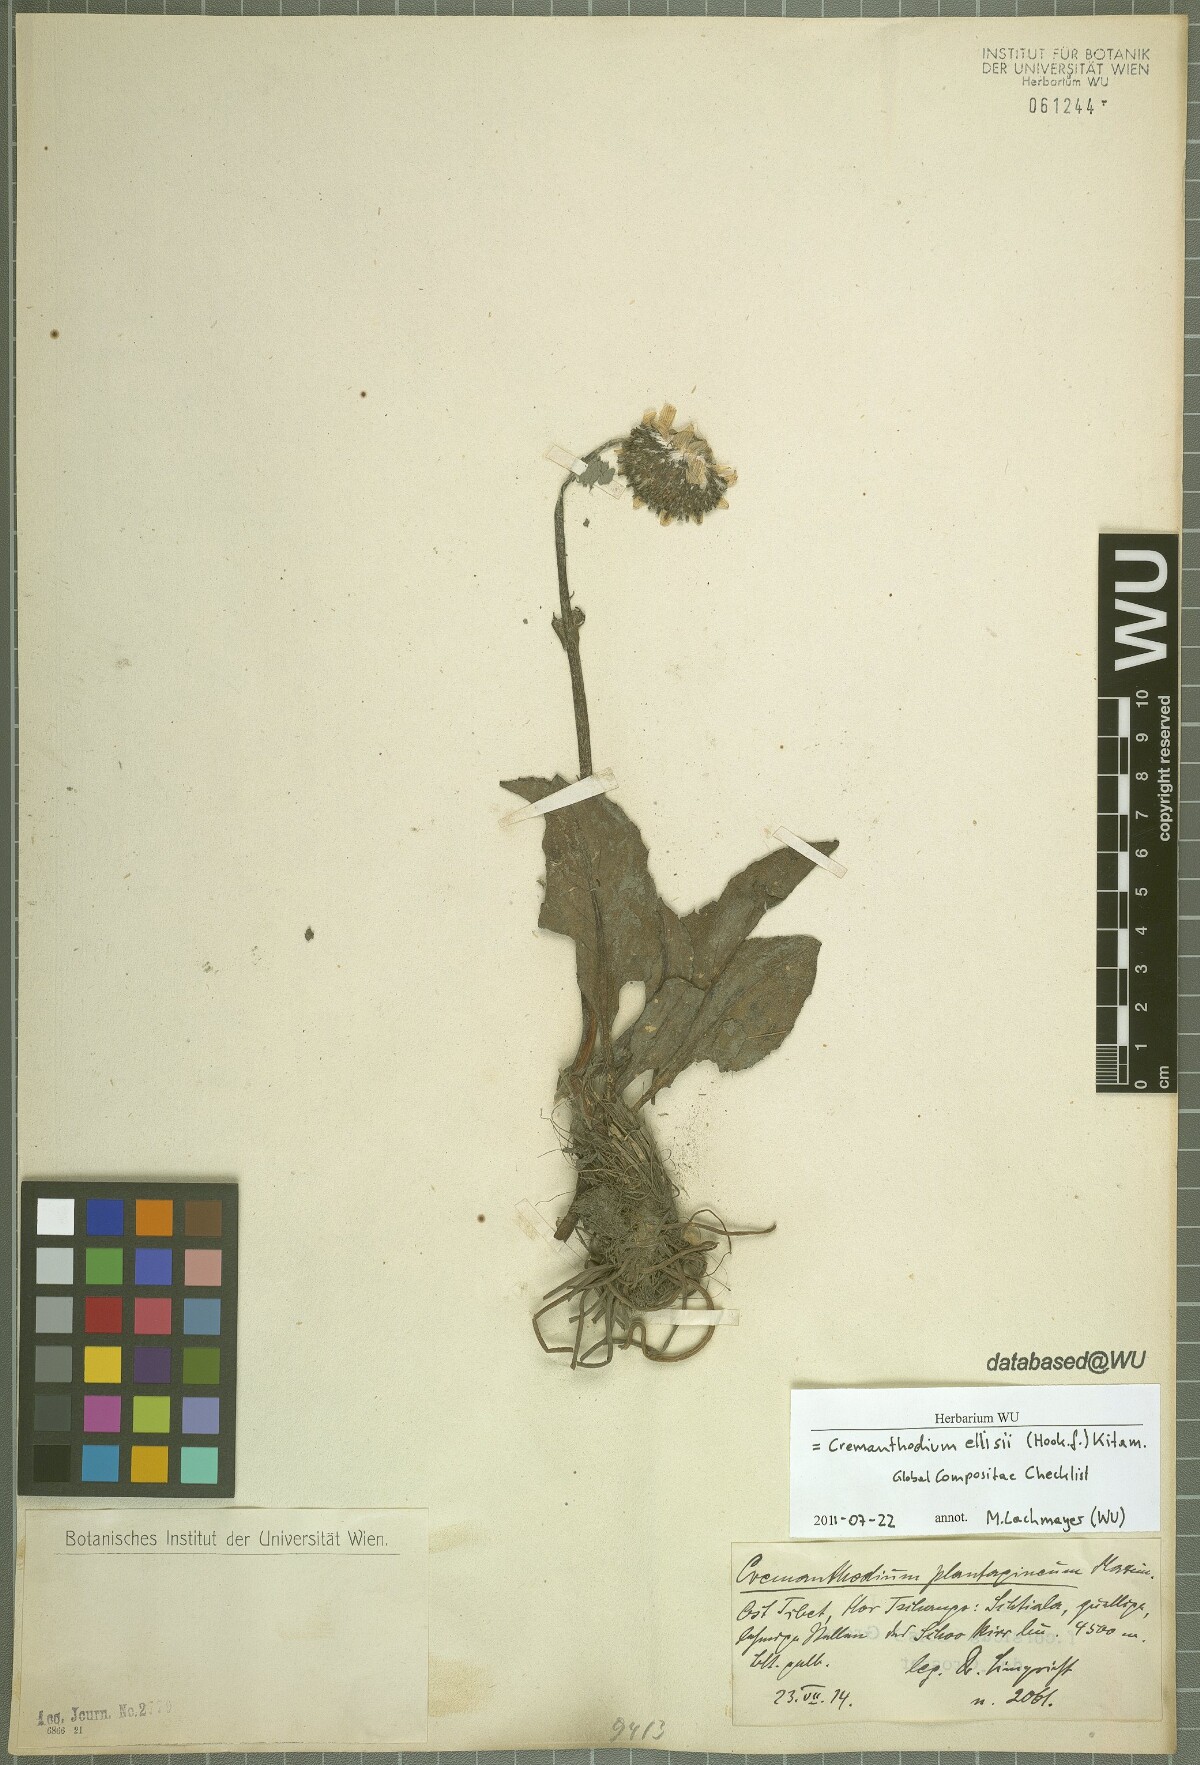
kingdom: Plantae
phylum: Tracheophyta
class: Magnoliopsida
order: Asterales
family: Asteraceae
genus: Cremanthodium
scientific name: Cremanthodium ellisii
